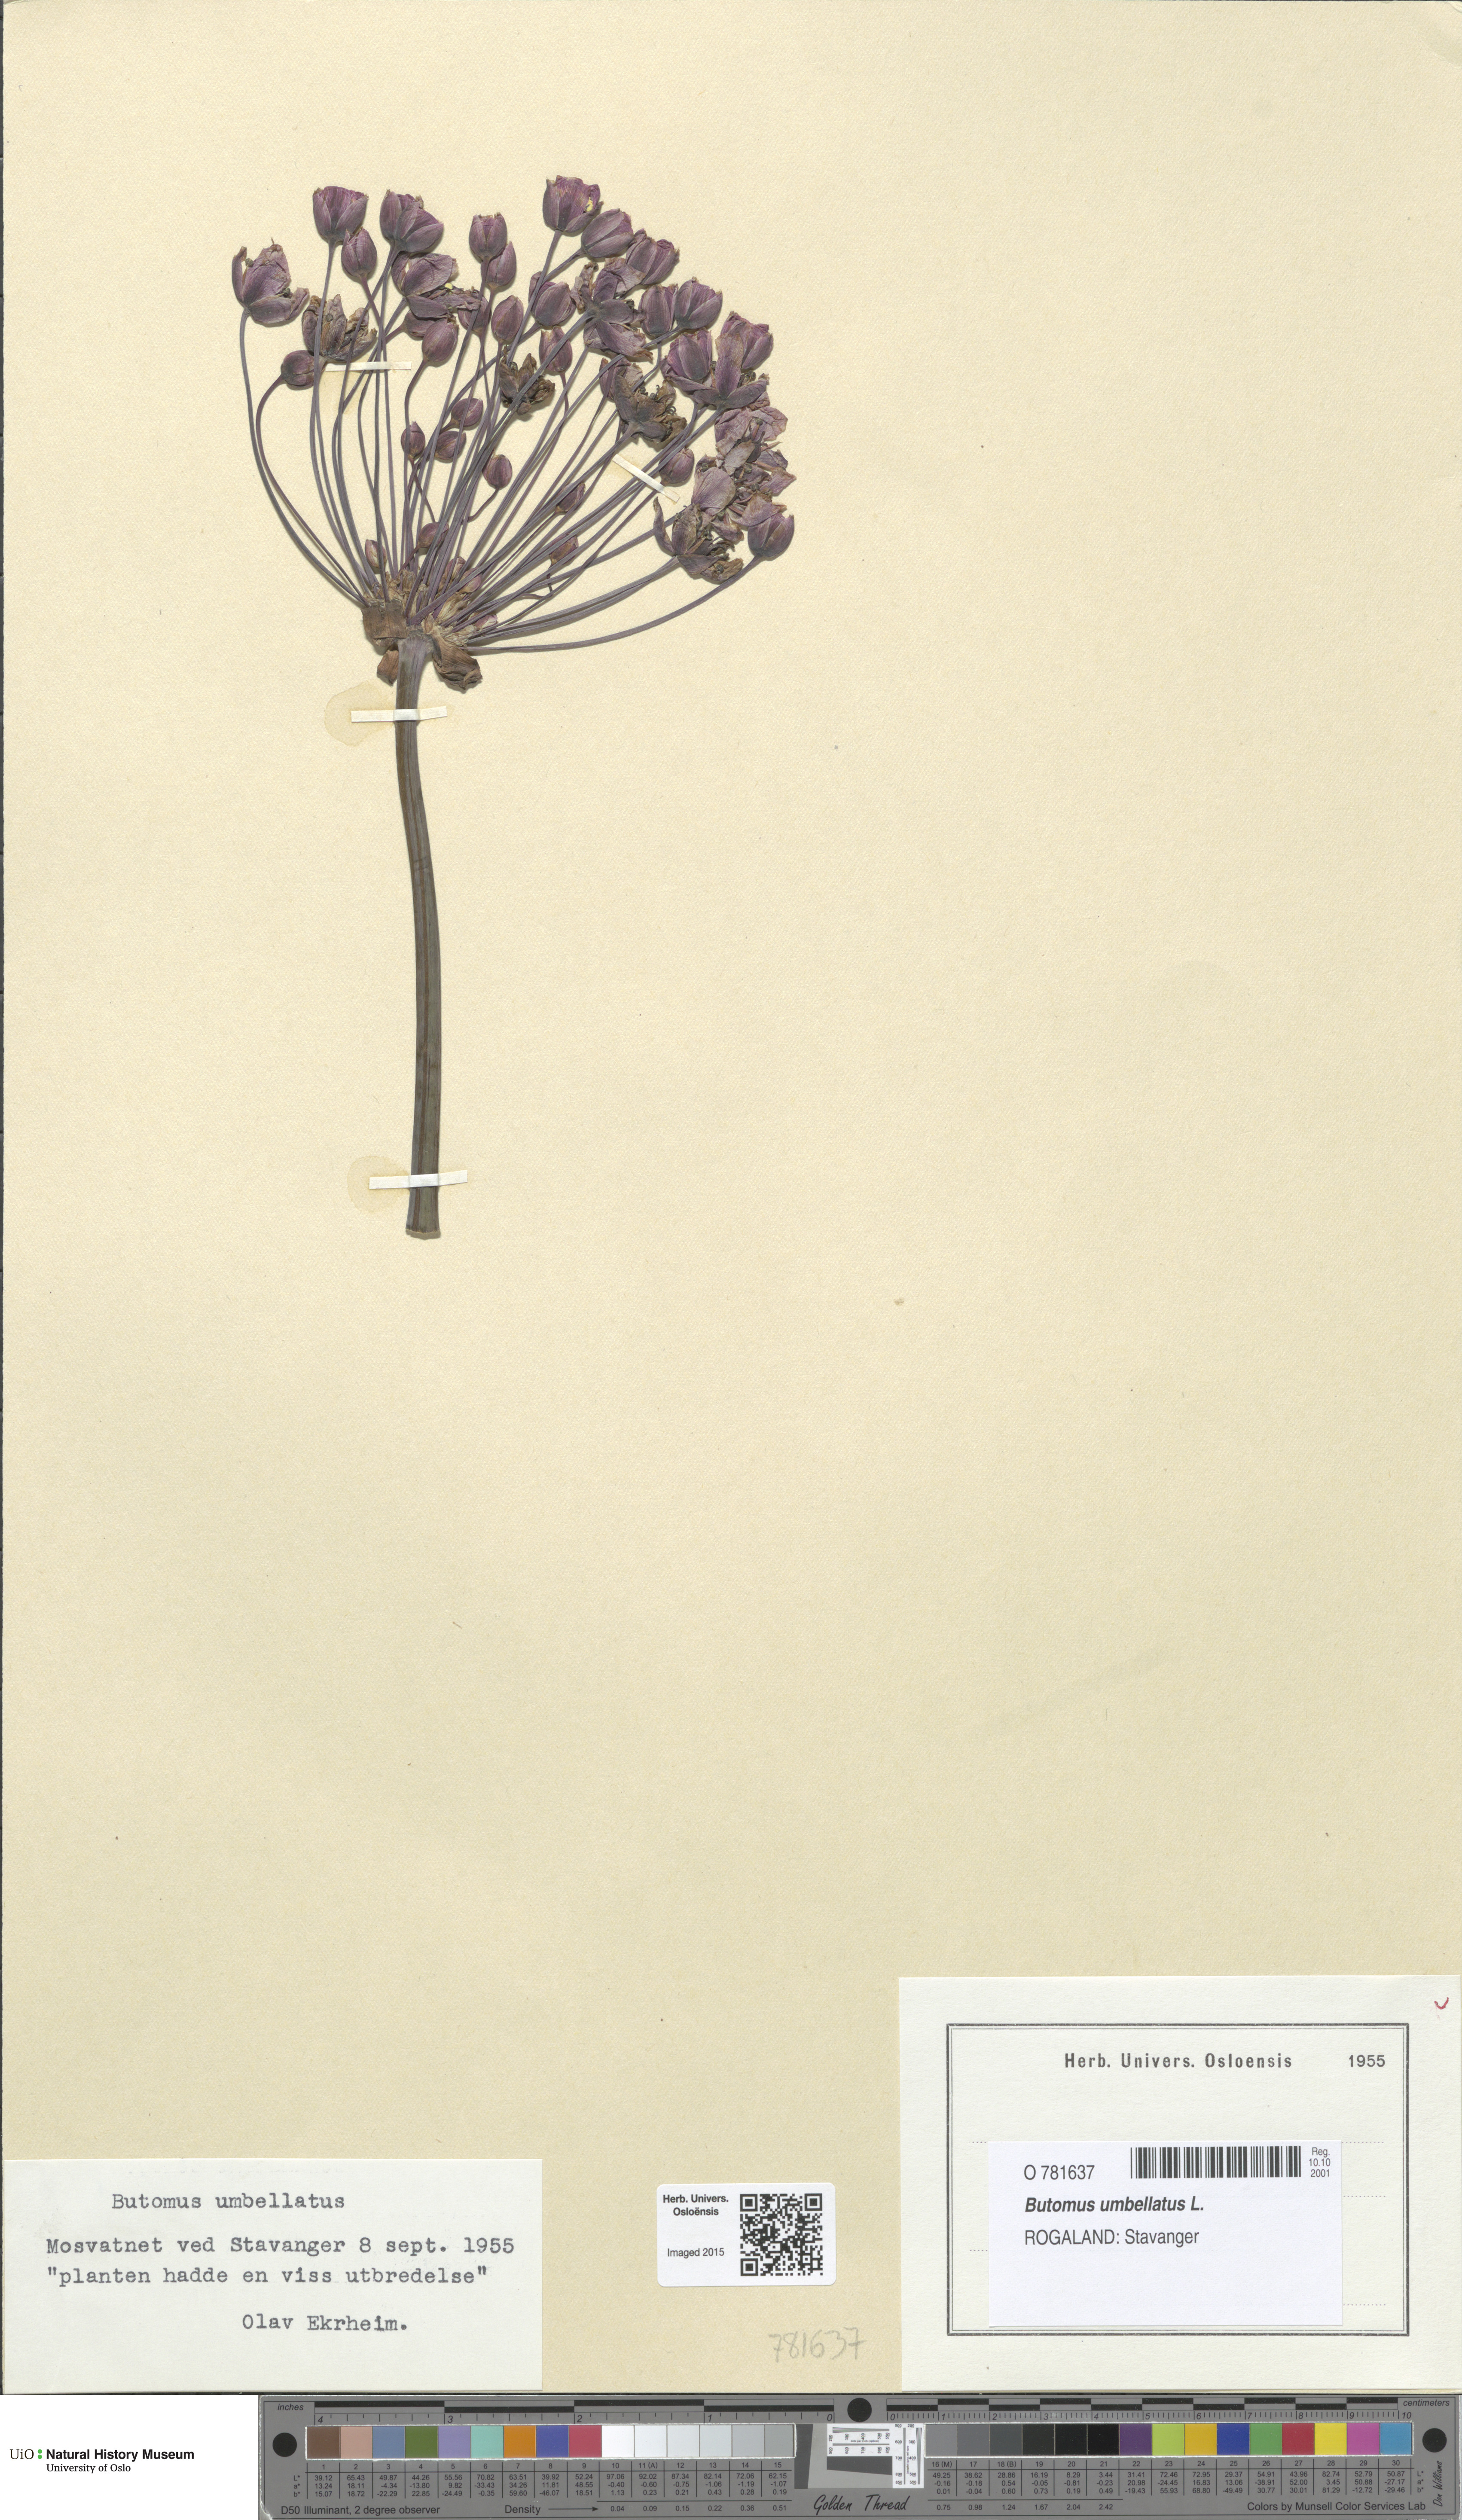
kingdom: Plantae
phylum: Tracheophyta
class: Liliopsida
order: Alismatales
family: Butomaceae
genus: Butomus
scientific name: Butomus umbellatus
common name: Flowering-rush
